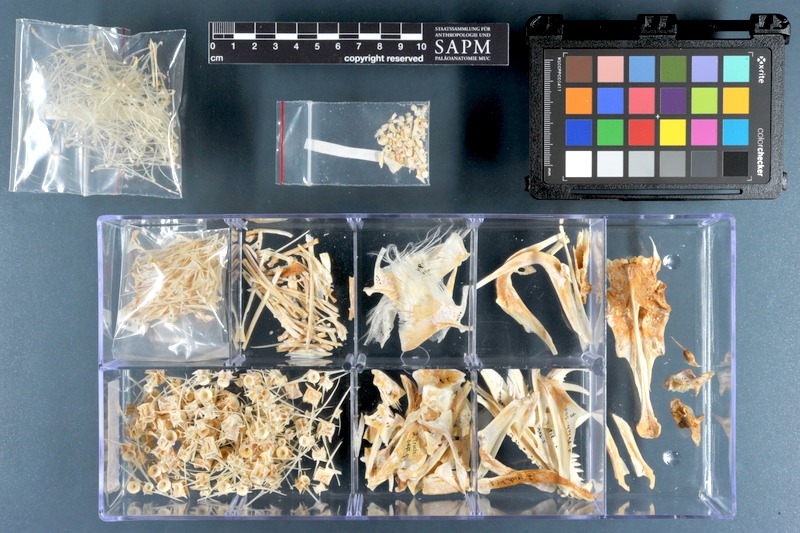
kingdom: Animalia
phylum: Chordata
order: Perciformes
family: Trichiuridae
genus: Trichiurus
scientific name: Trichiurus lepturus
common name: Largehead hairtail
